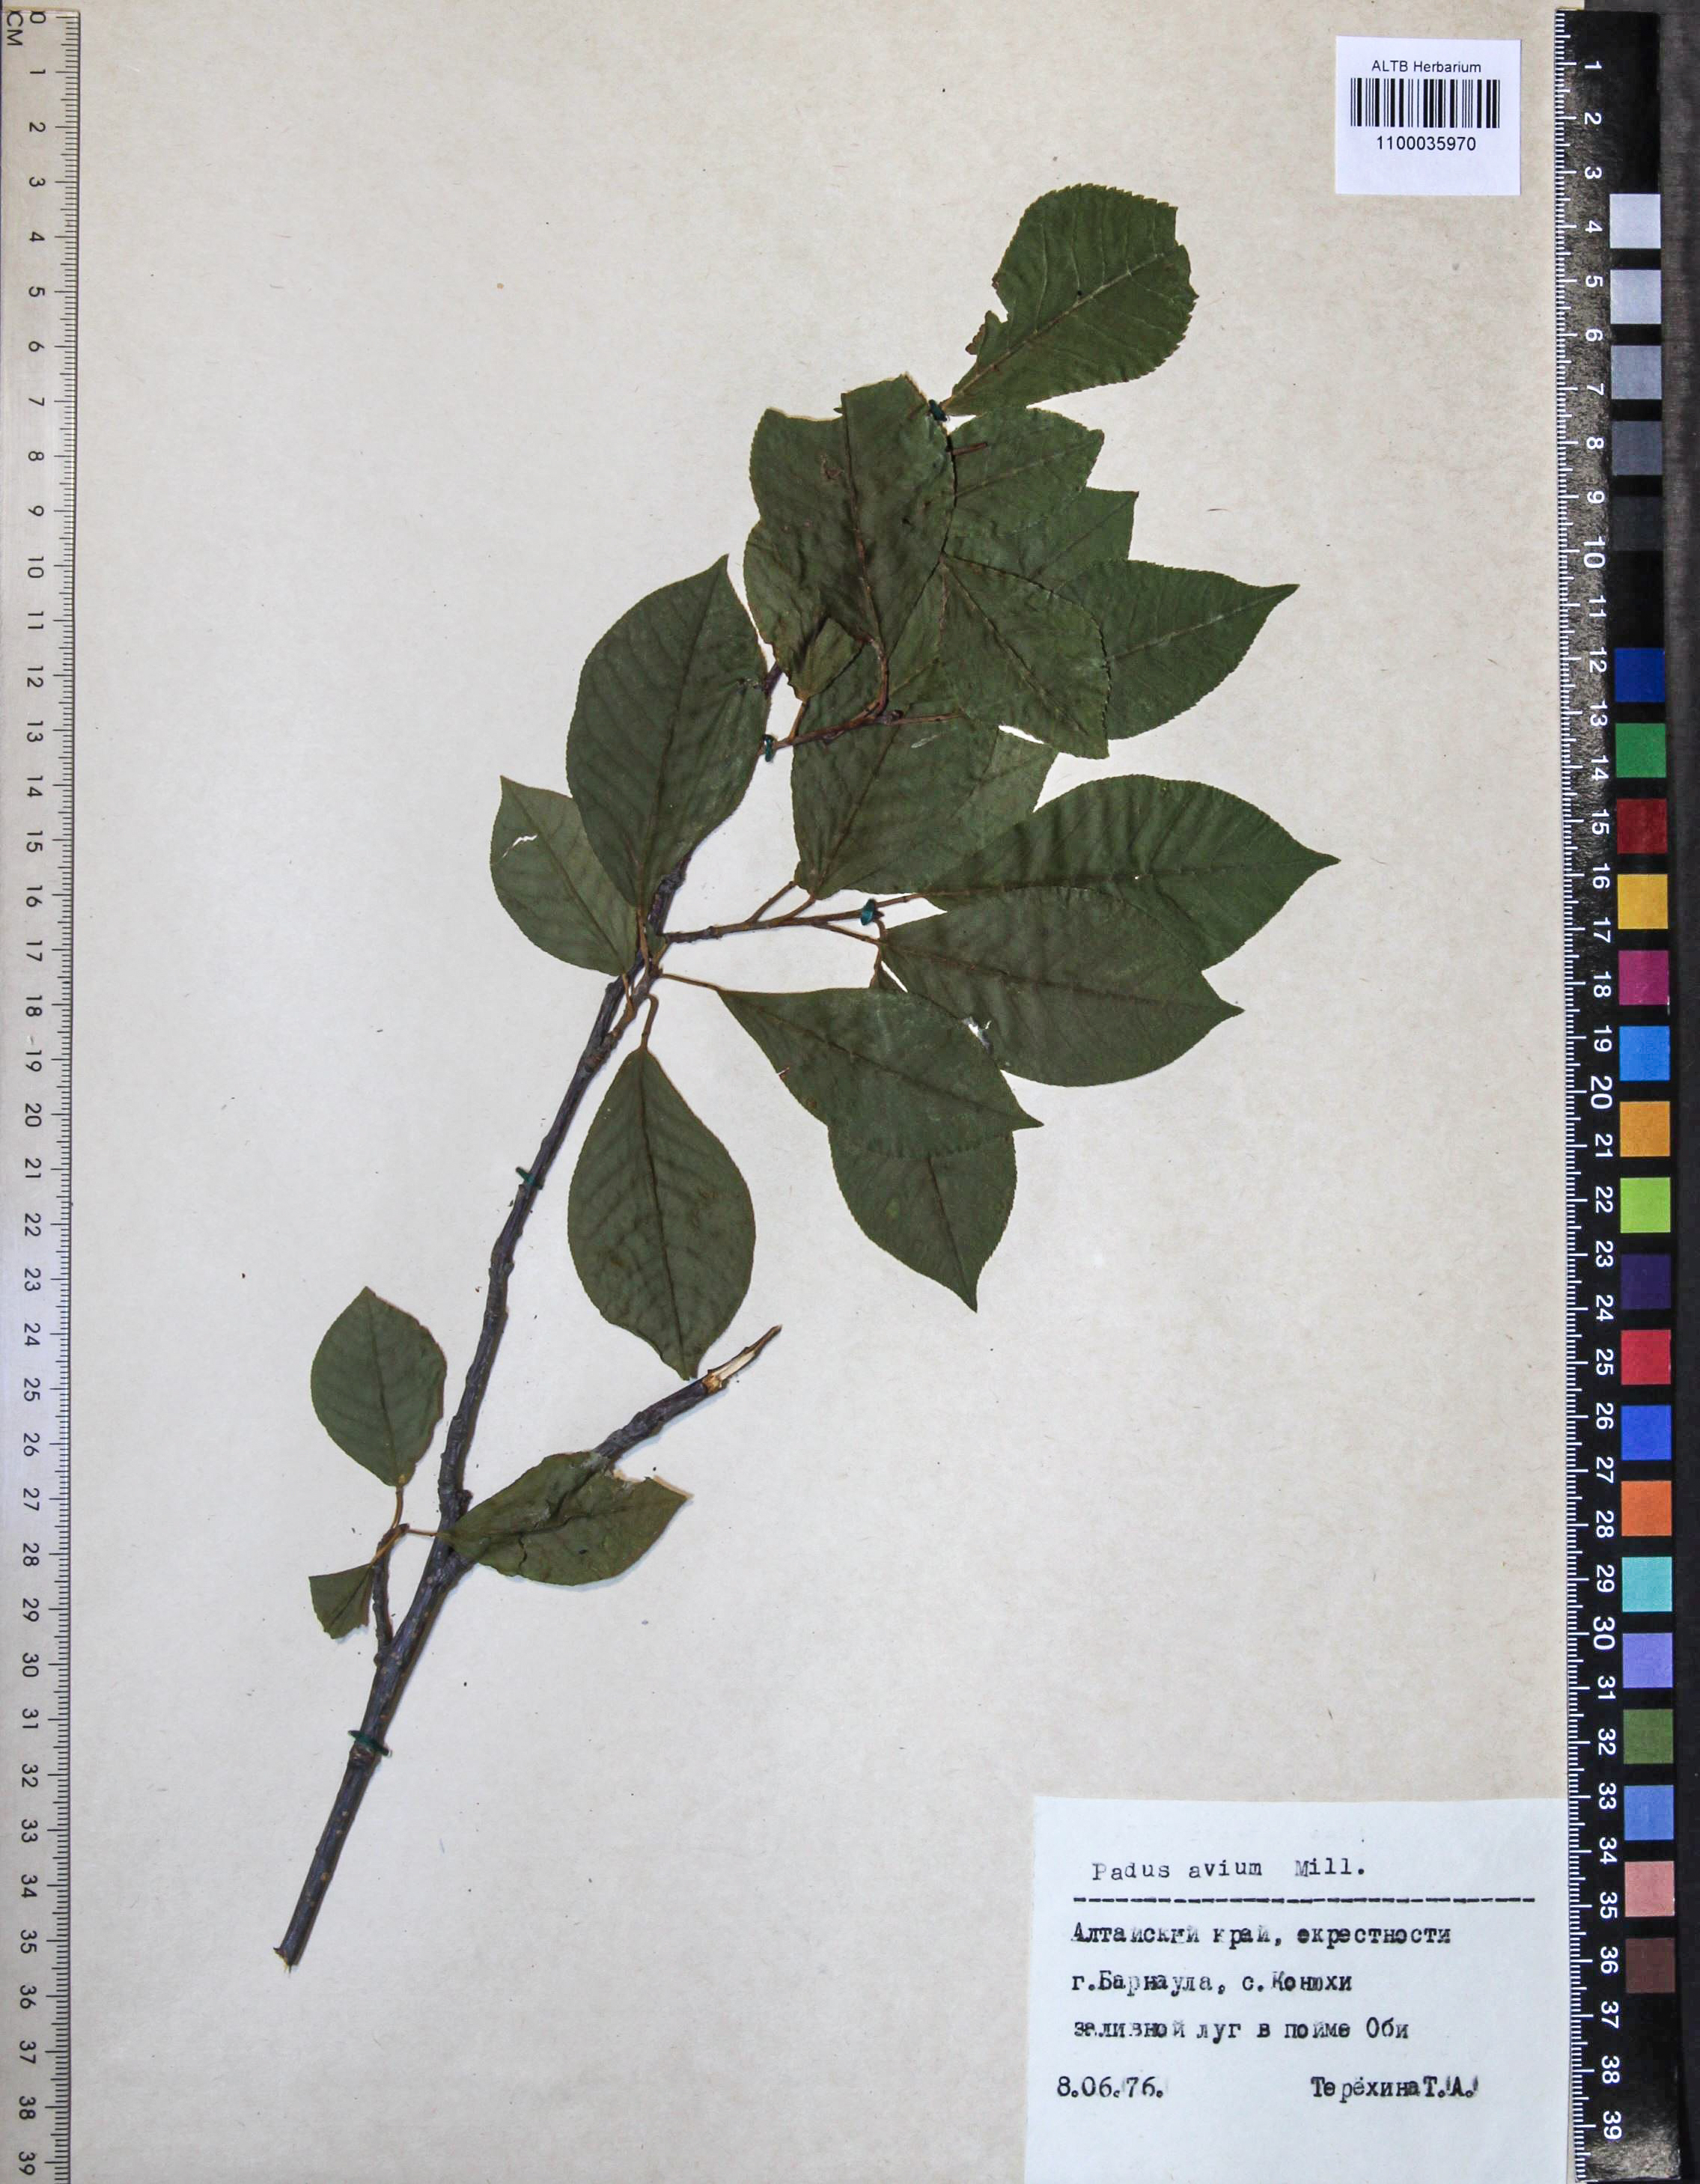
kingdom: Plantae
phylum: Tracheophyta
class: Magnoliopsida
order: Rosales
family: Rosaceae
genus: Prunus
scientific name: Prunus padus
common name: Bird cherry
